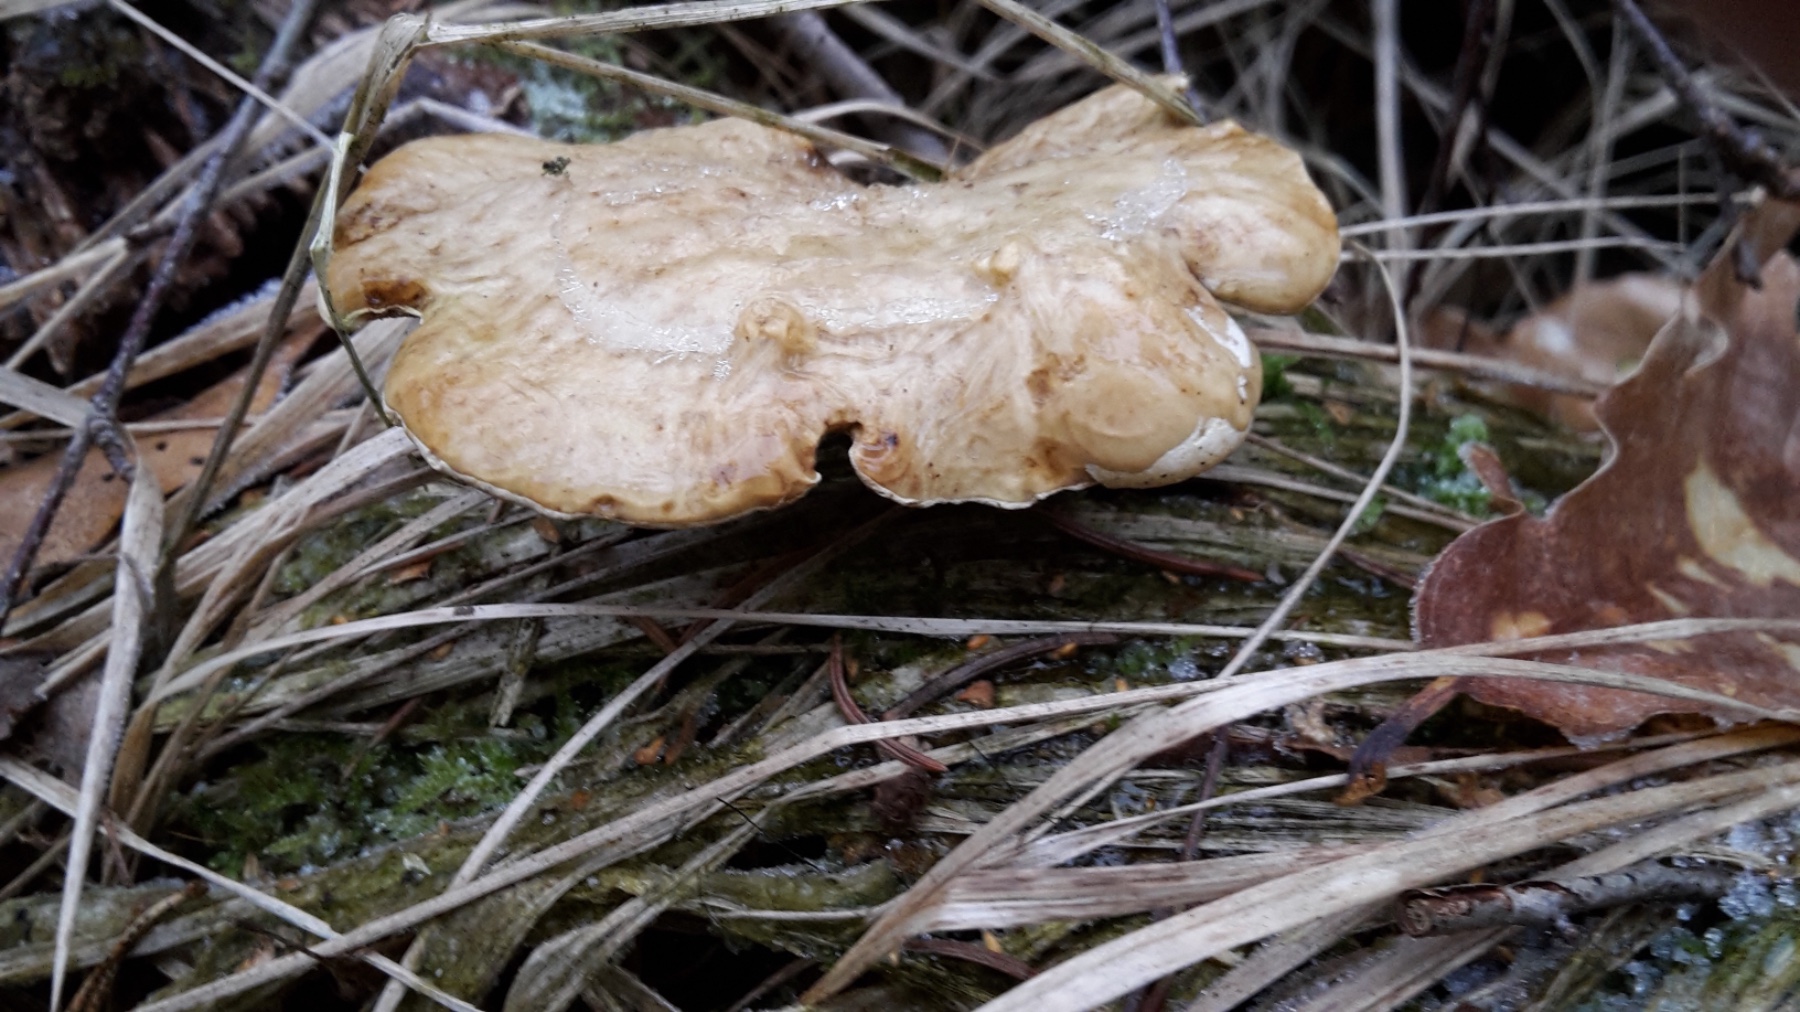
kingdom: Fungi
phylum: Basidiomycota
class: Agaricomycetes
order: Polyporales
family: Polyporaceae
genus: Cerioporus
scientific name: Cerioporus varius
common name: foranderlig stilkporesvamp
